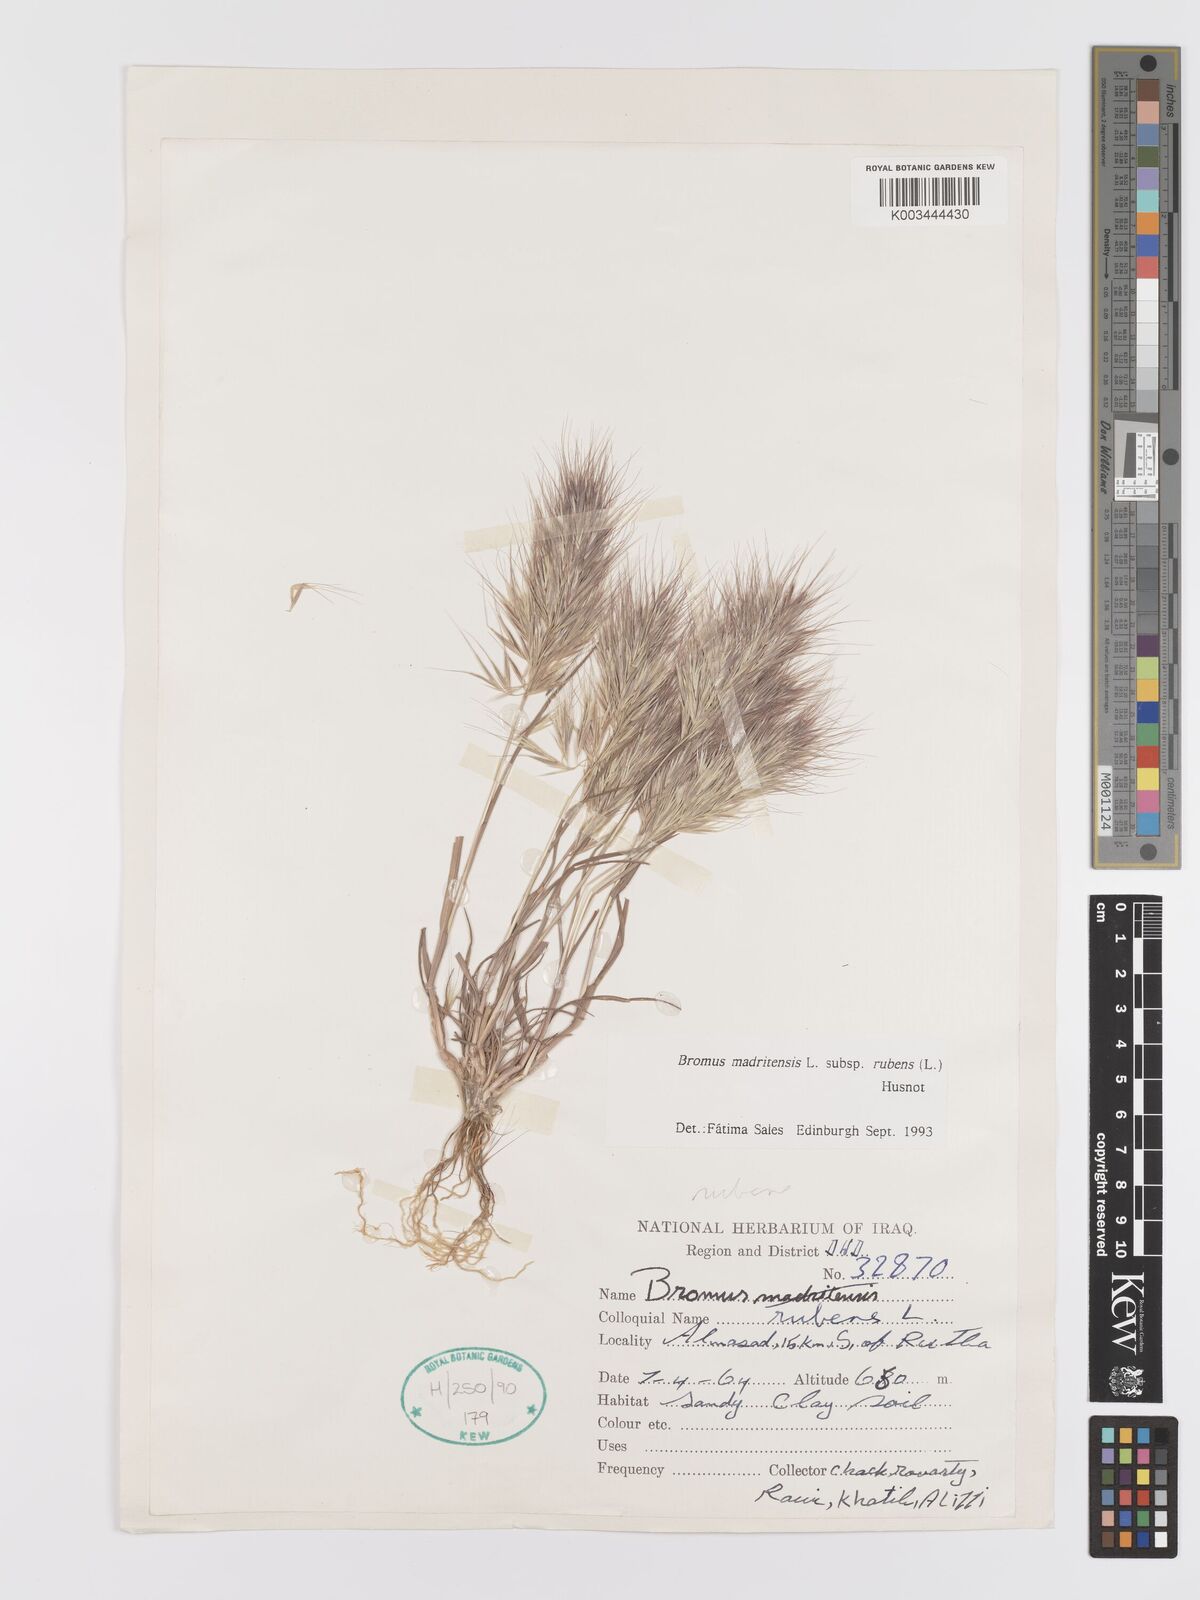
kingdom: Plantae
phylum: Tracheophyta
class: Liliopsida
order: Poales
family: Poaceae
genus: Bromus
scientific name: Bromus rubens
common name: Red brome
